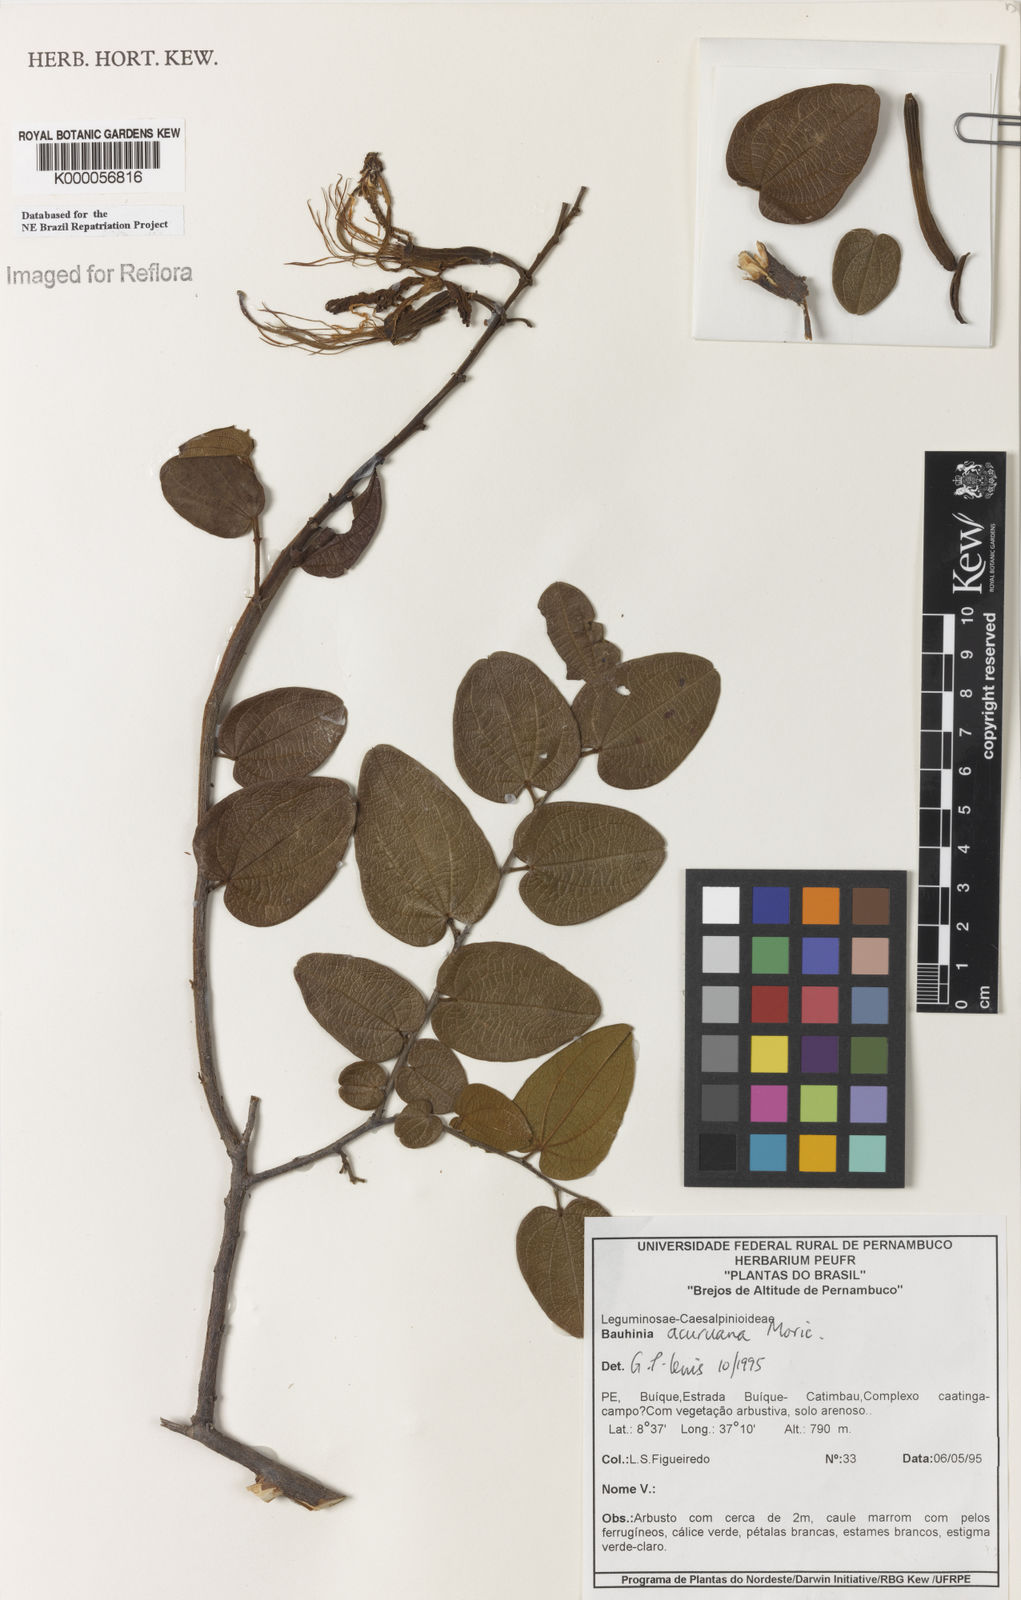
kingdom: Plantae
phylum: Tracheophyta
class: Magnoliopsida
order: Fabales
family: Fabaceae
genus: Bauhinia
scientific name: Bauhinia acuruana
